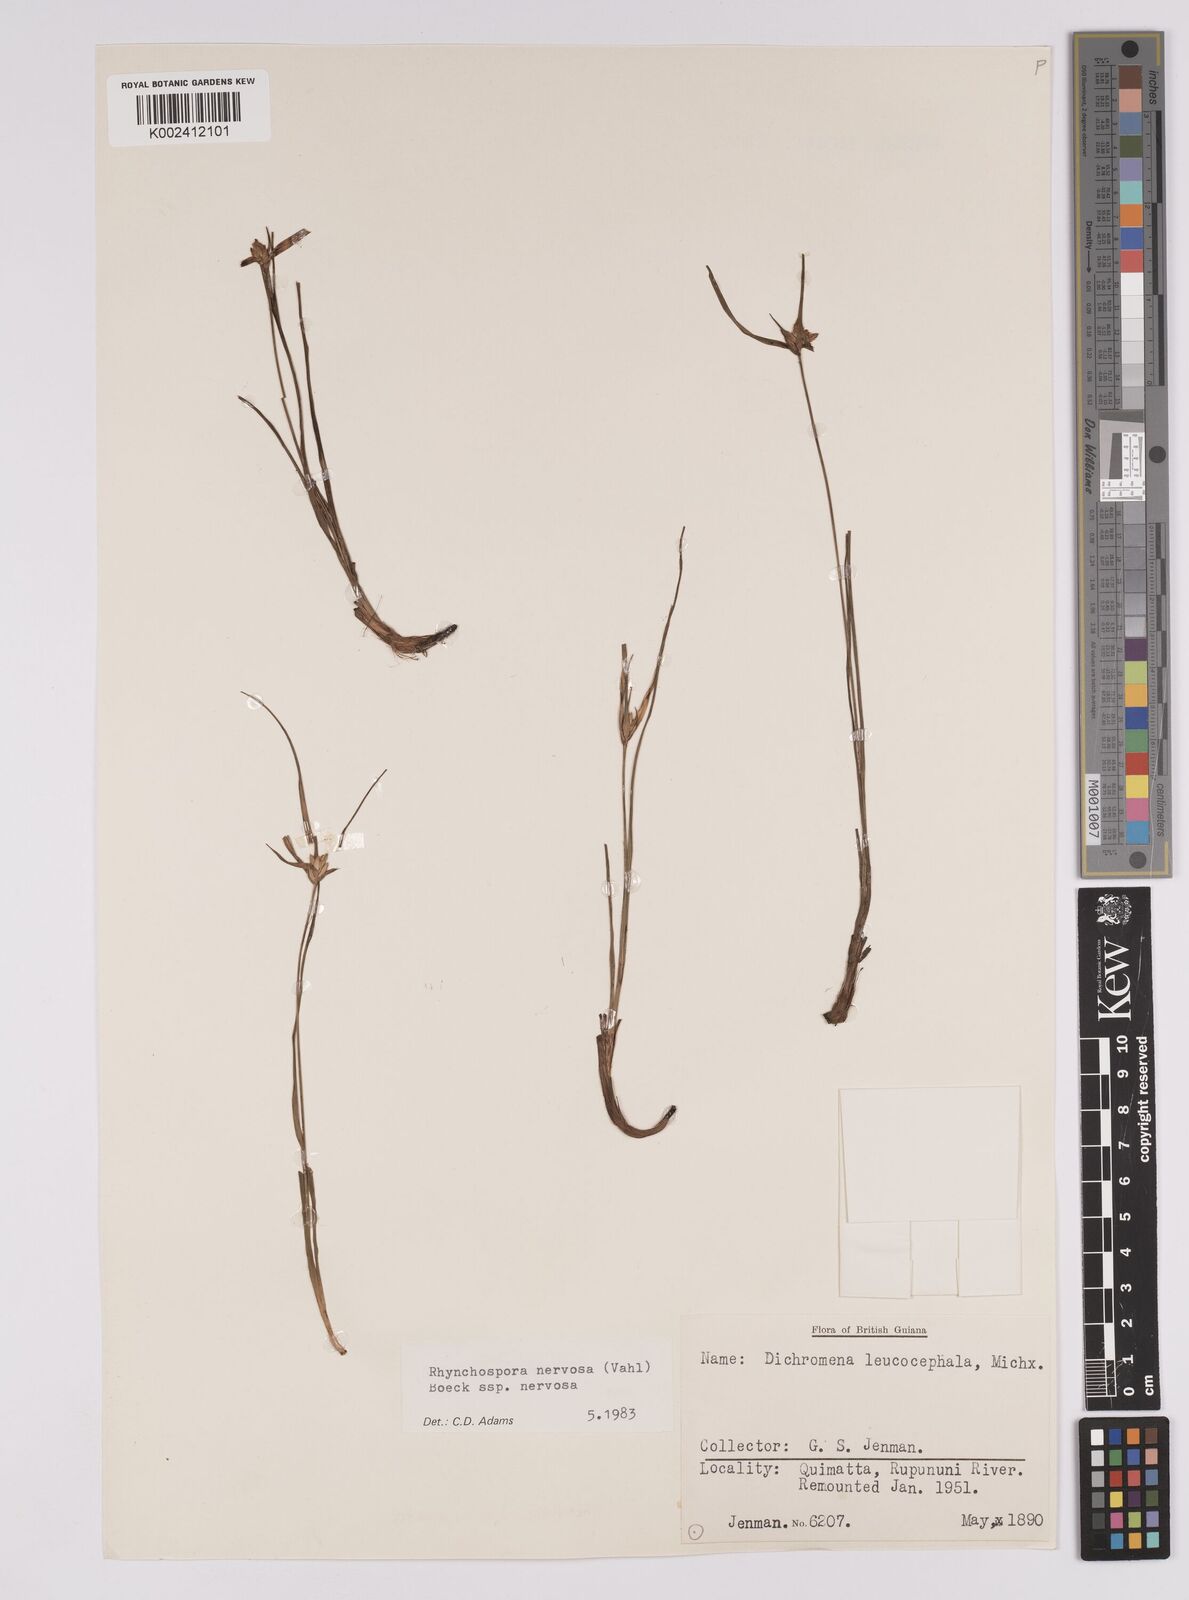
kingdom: Plantae
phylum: Tracheophyta
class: Liliopsida
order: Poales
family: Cyperaceae
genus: Rhynchospora
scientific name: Rhynchospora nervosa
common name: Star sedge
